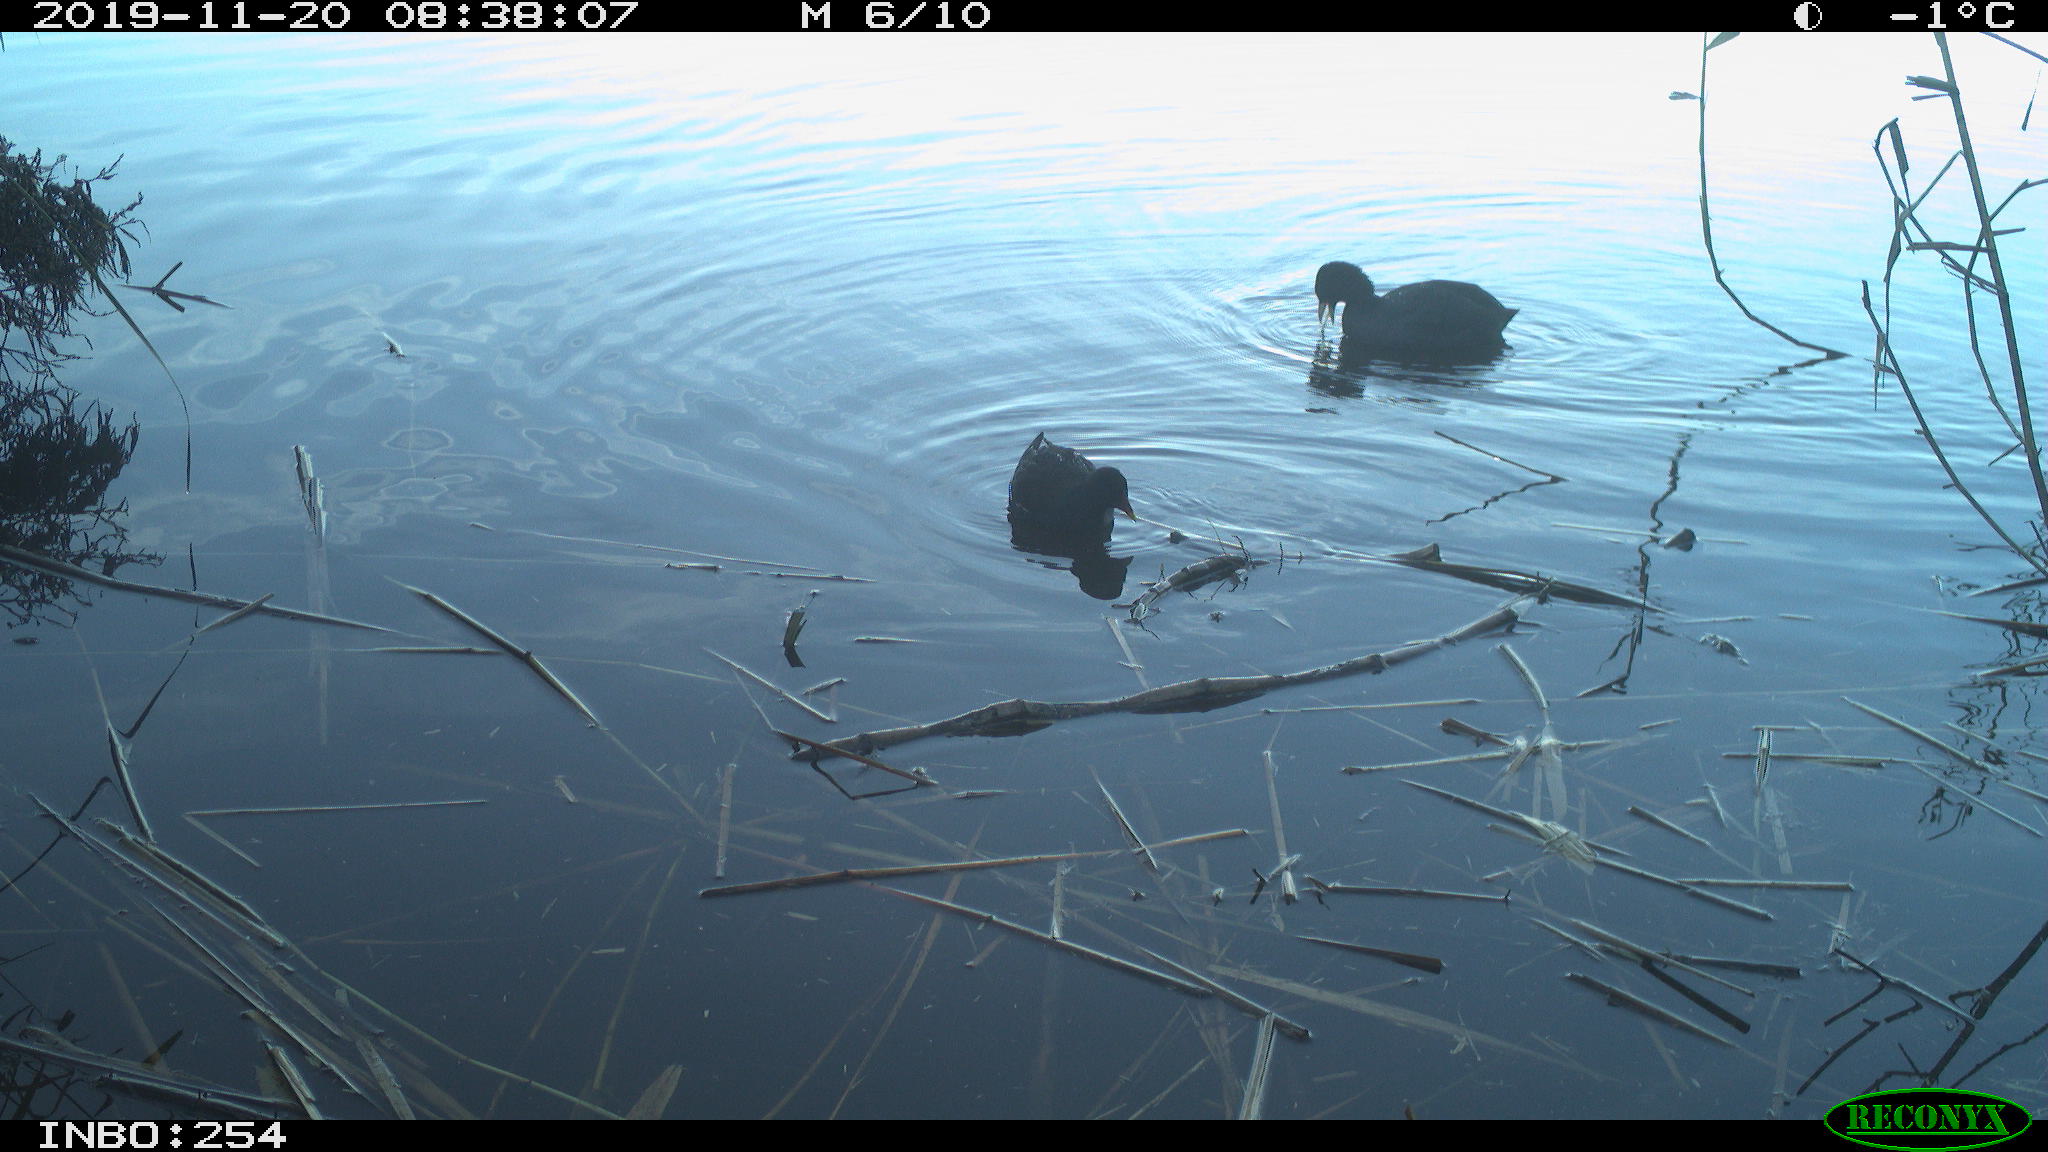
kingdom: Animalia
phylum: Chordata
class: Aves
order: Gruiformes
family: Rallidae
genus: Gallinula
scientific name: Gallinula chloropus
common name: Common moorhen
